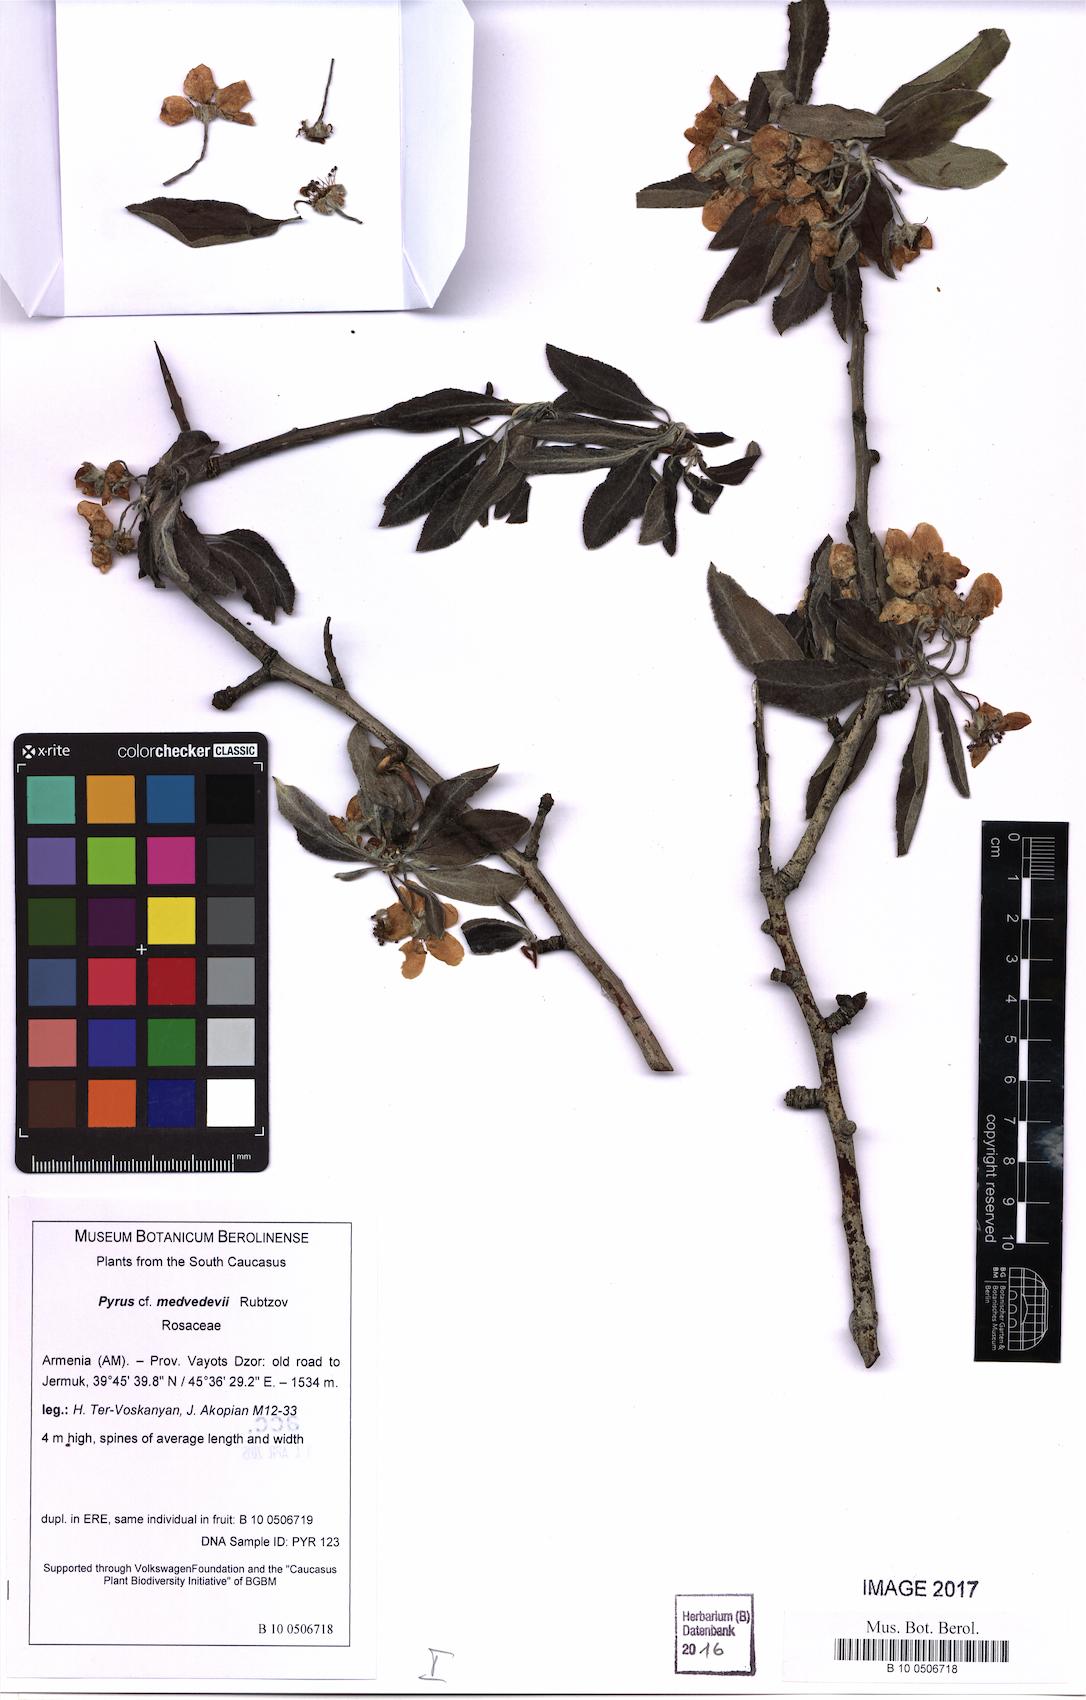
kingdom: Plantae
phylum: Tracheophyta
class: Magnoliopsida
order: Rosales
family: Rosaceae
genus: Pyrus
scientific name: Pyrus medvedevii
